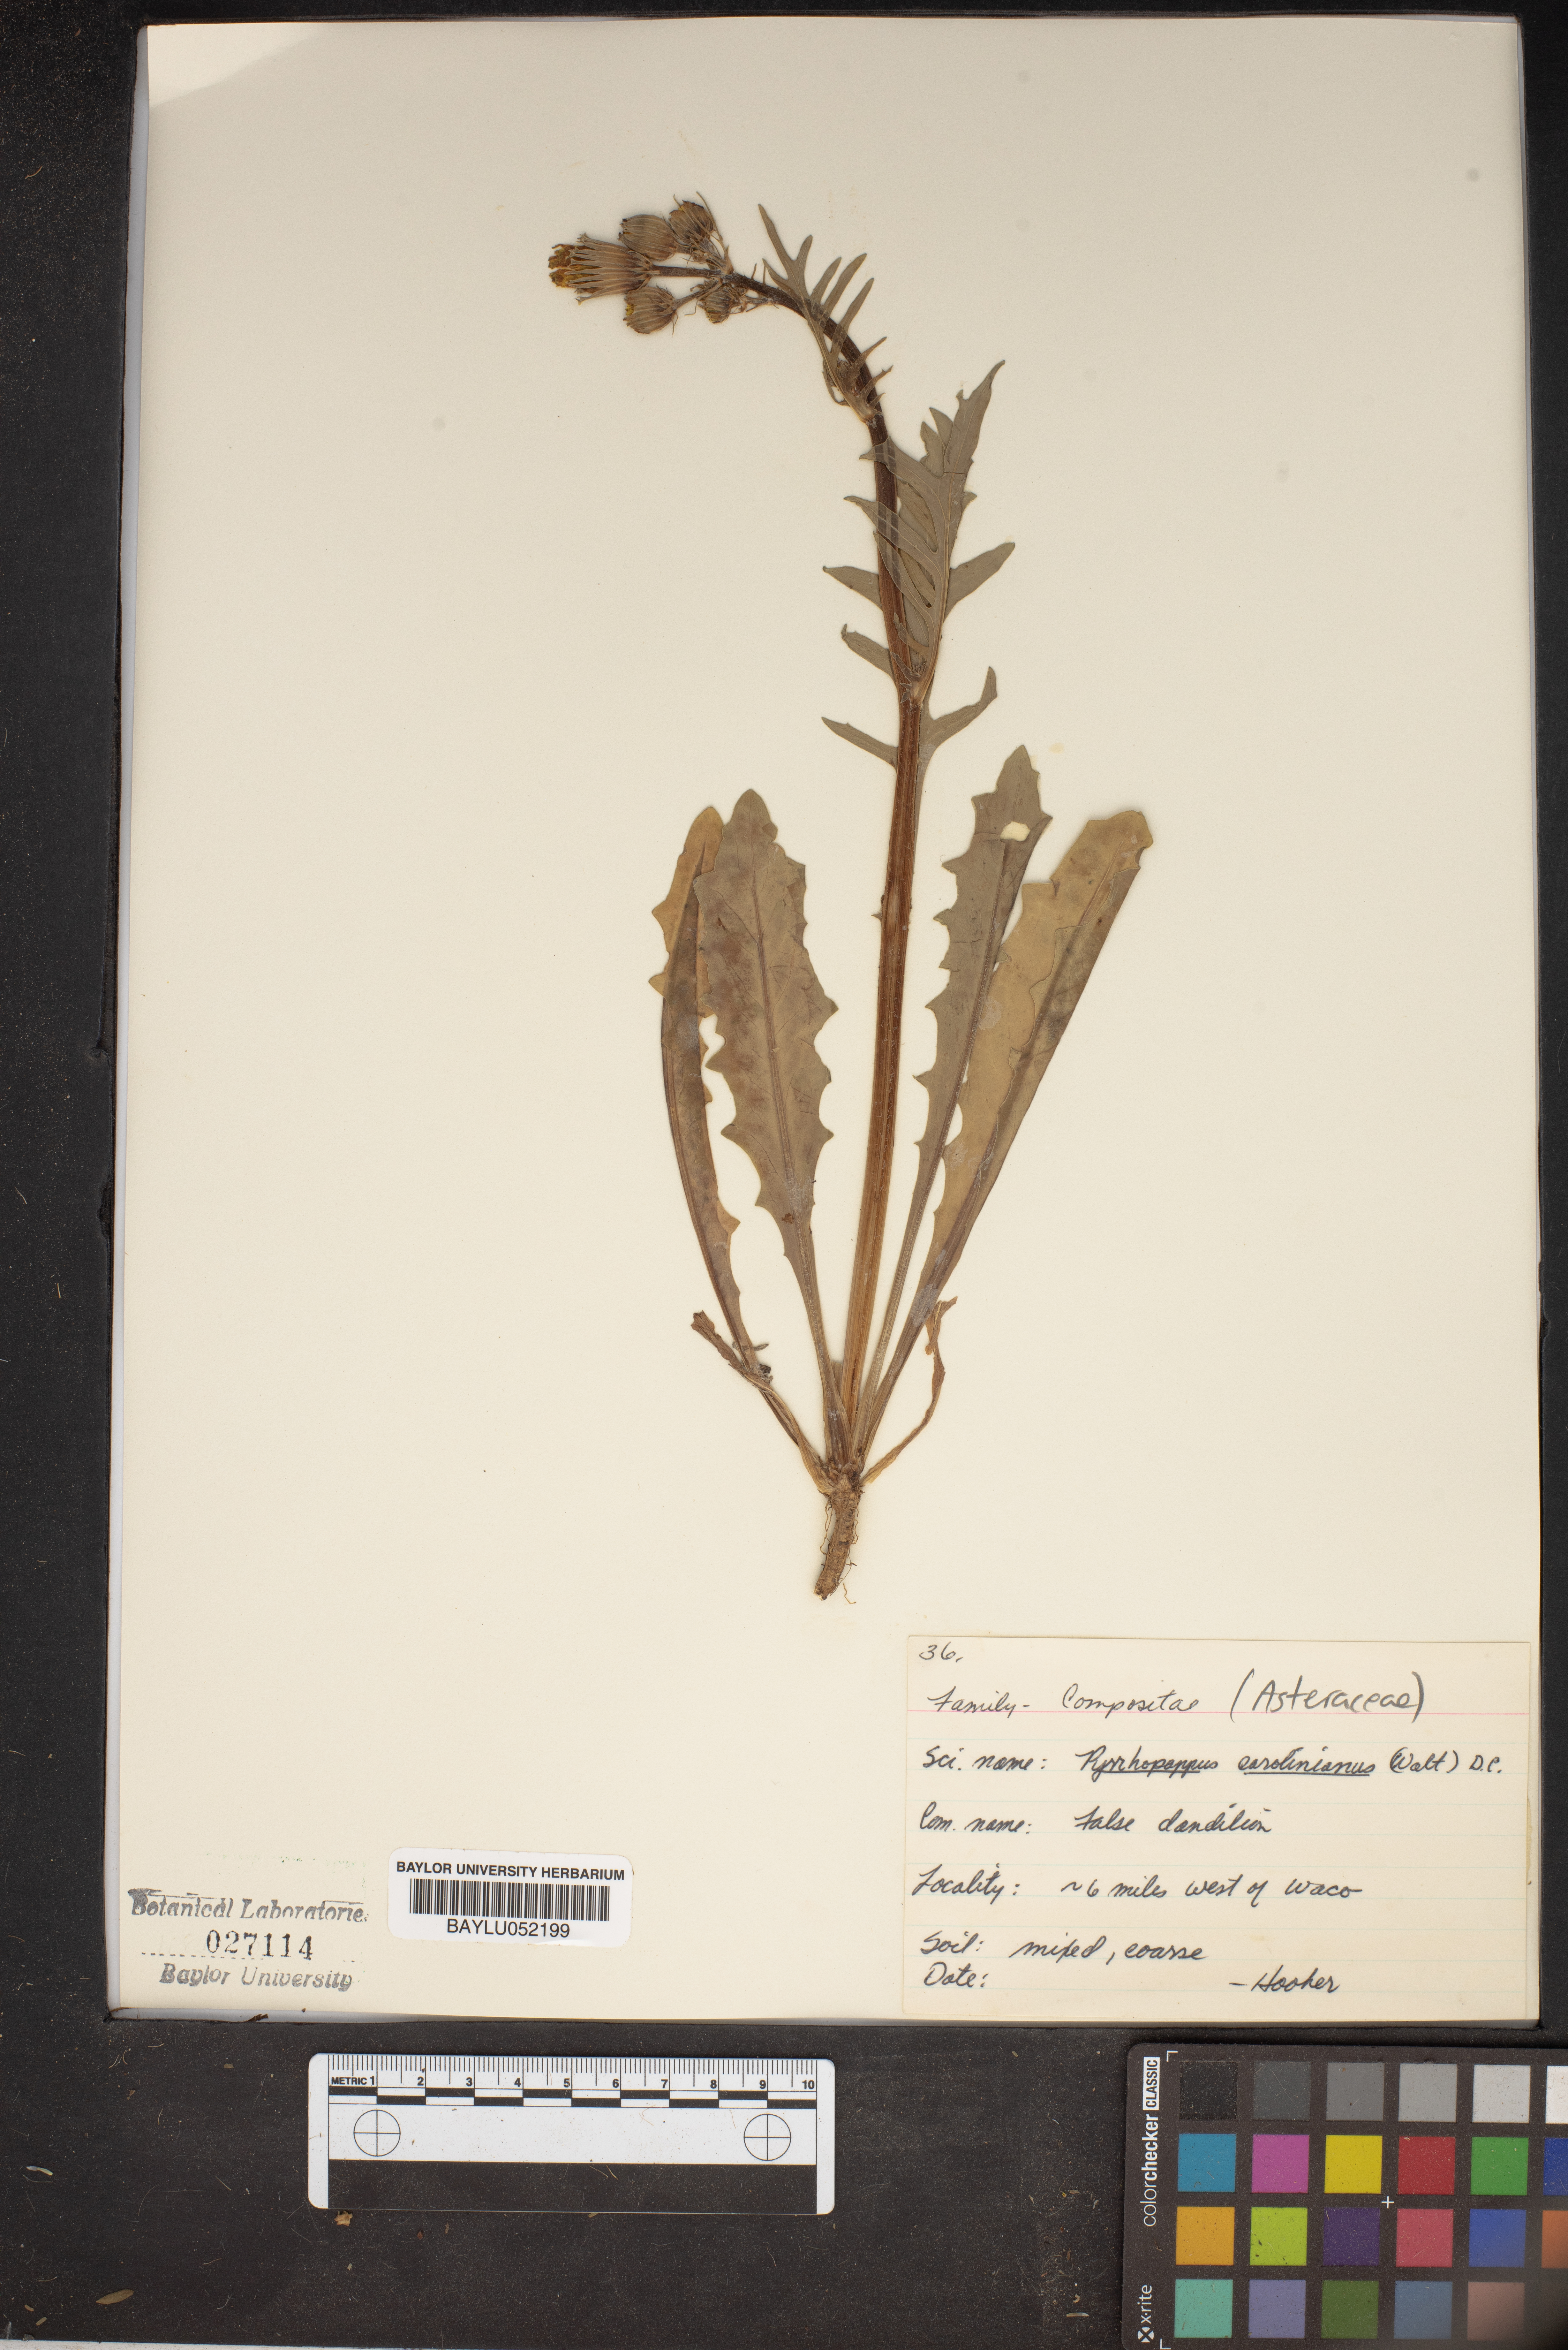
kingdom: Plantae
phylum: Tracheophyta
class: Magnoliopsida
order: Asterales
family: Asteraceae
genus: Pyrrhopappus
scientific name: Pyrrhopappus carolinianus
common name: Carolina desert-chicory
